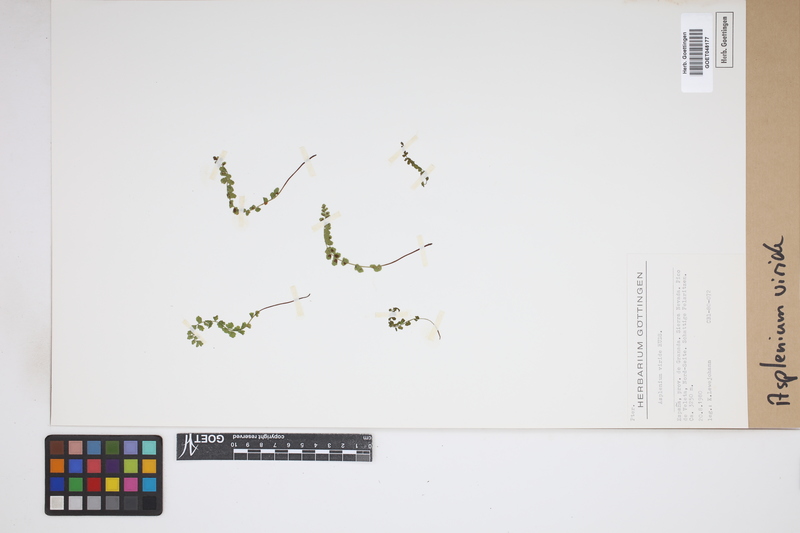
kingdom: Plantae
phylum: Tracheophyta
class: Polypodiopsida
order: Polypodiales
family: Aspleniaceae
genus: Asplenium
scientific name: Asplenium viride
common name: Green spleenwort
